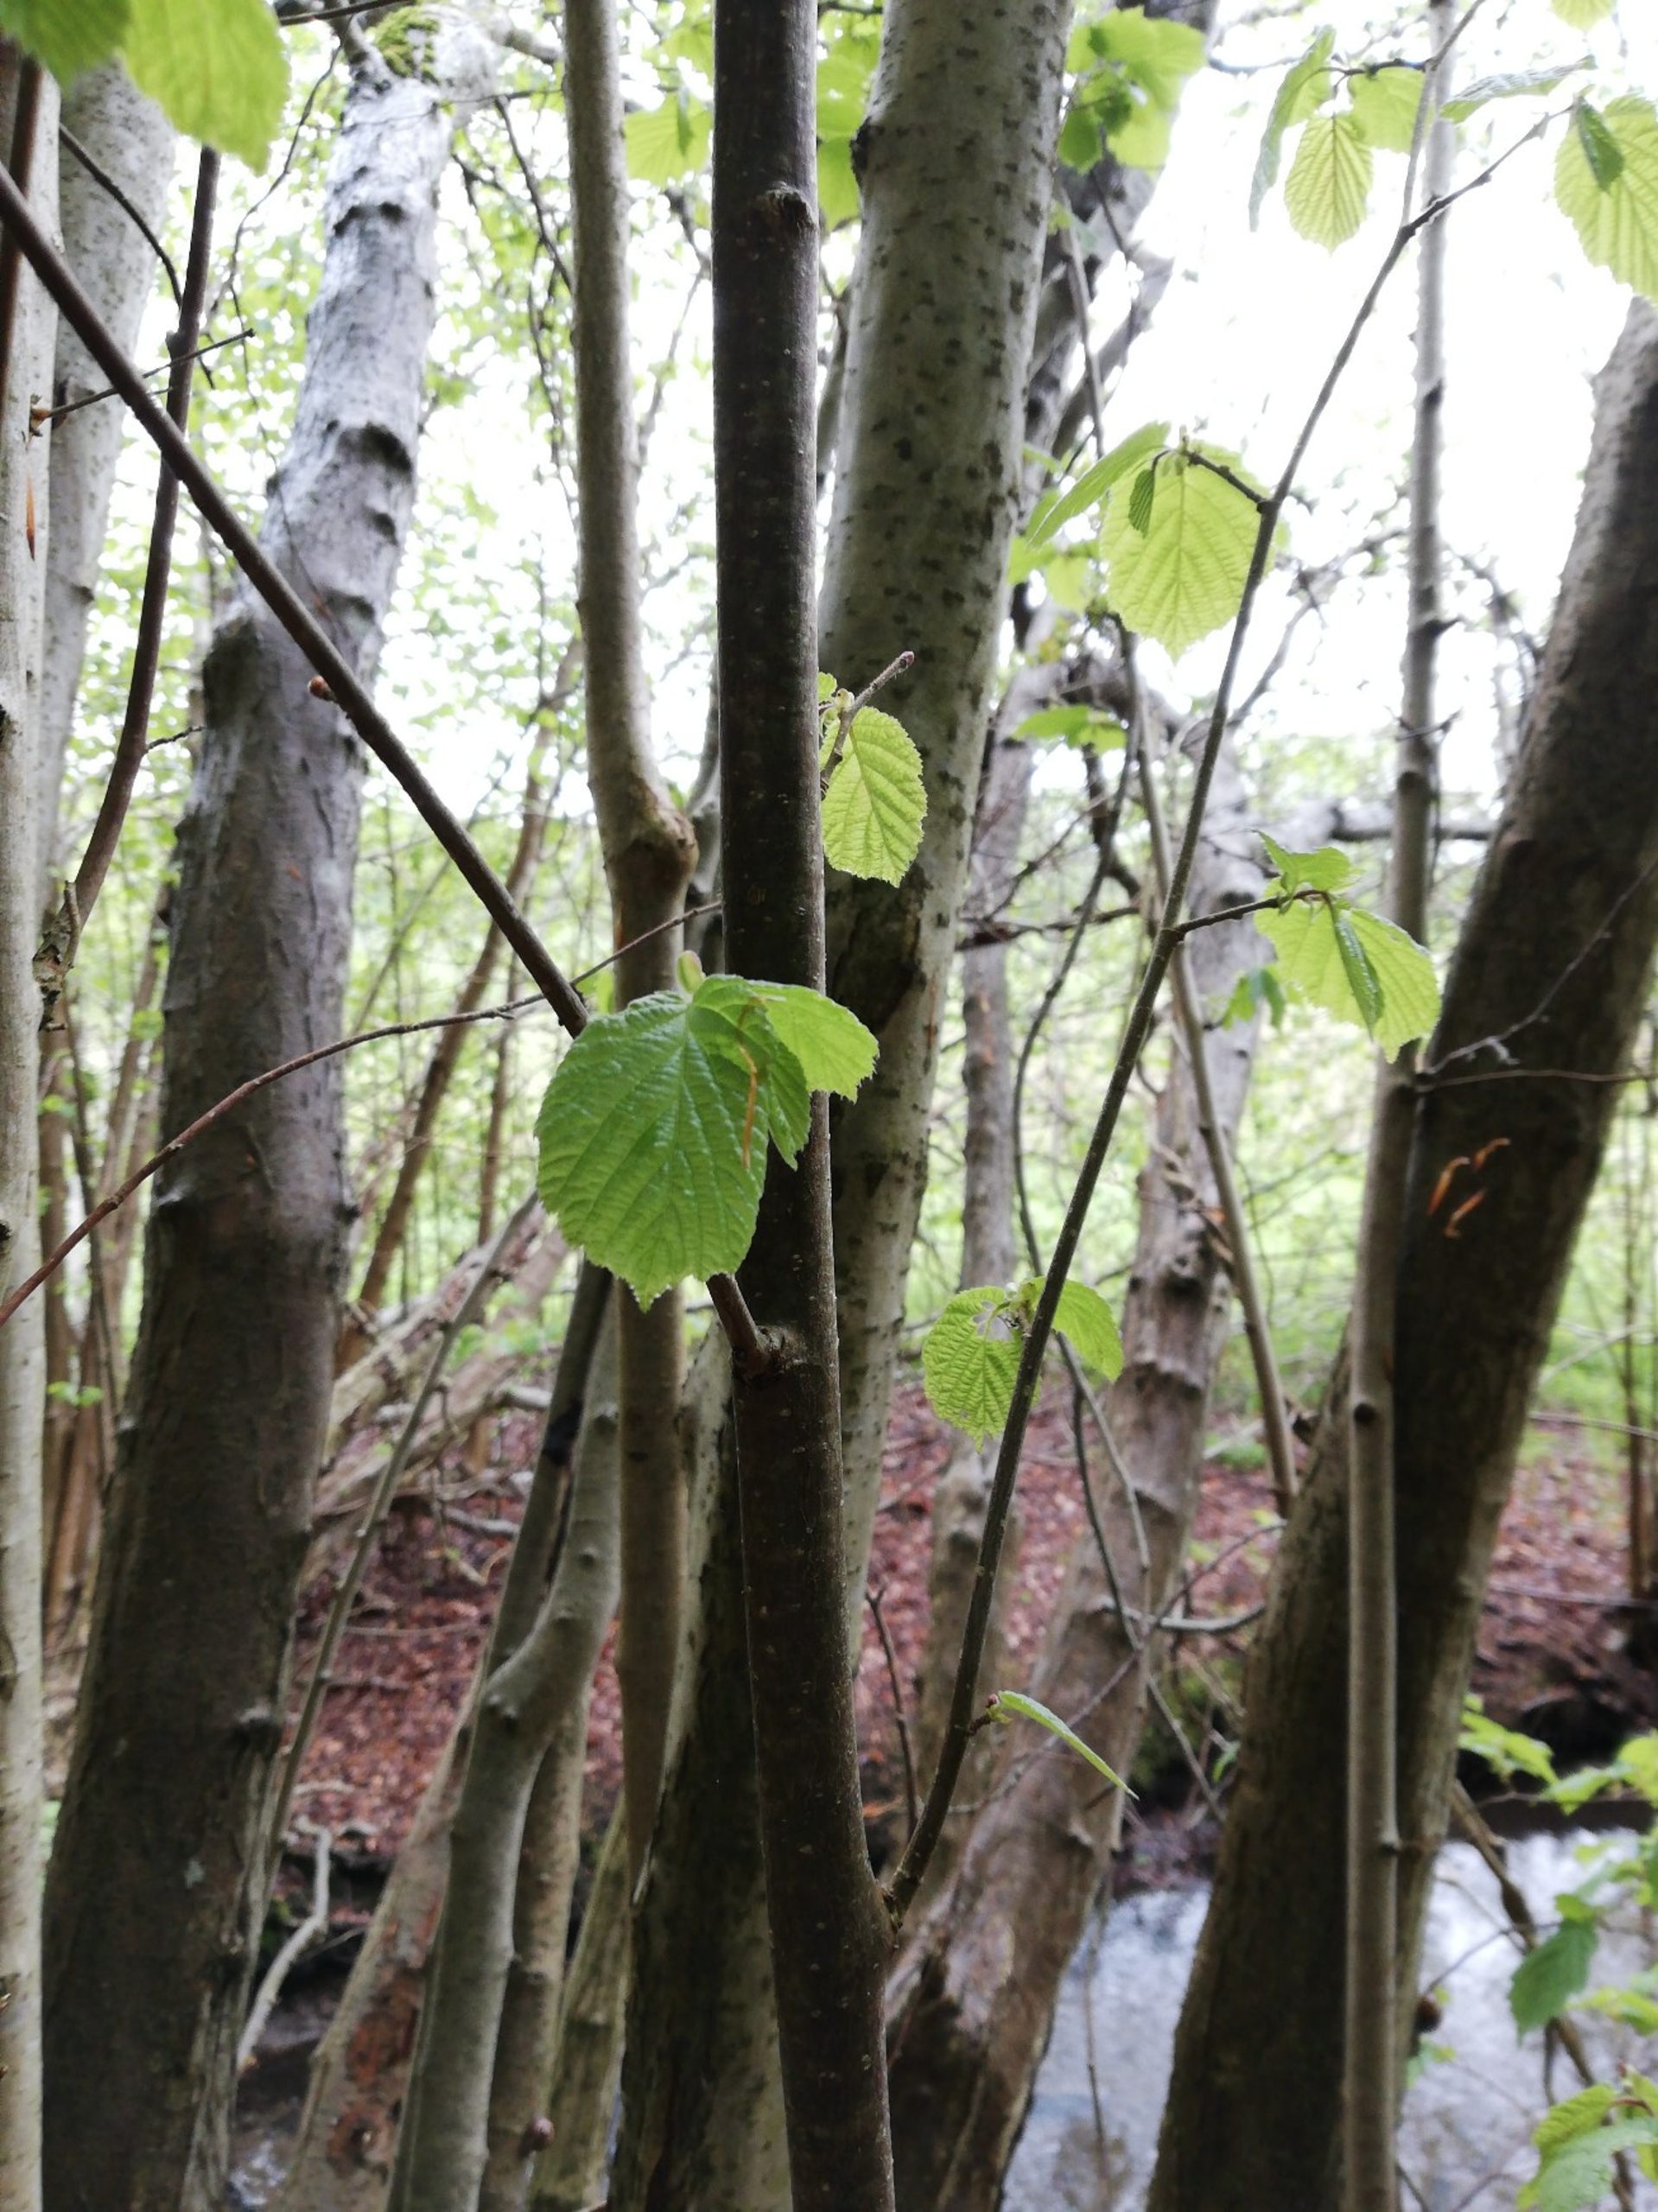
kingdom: Plantae
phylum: Tracheophyta
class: Magnoliopsida
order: Fagales
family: Betulaceae
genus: Corylus
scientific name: Corylus avellana
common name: Hassel
